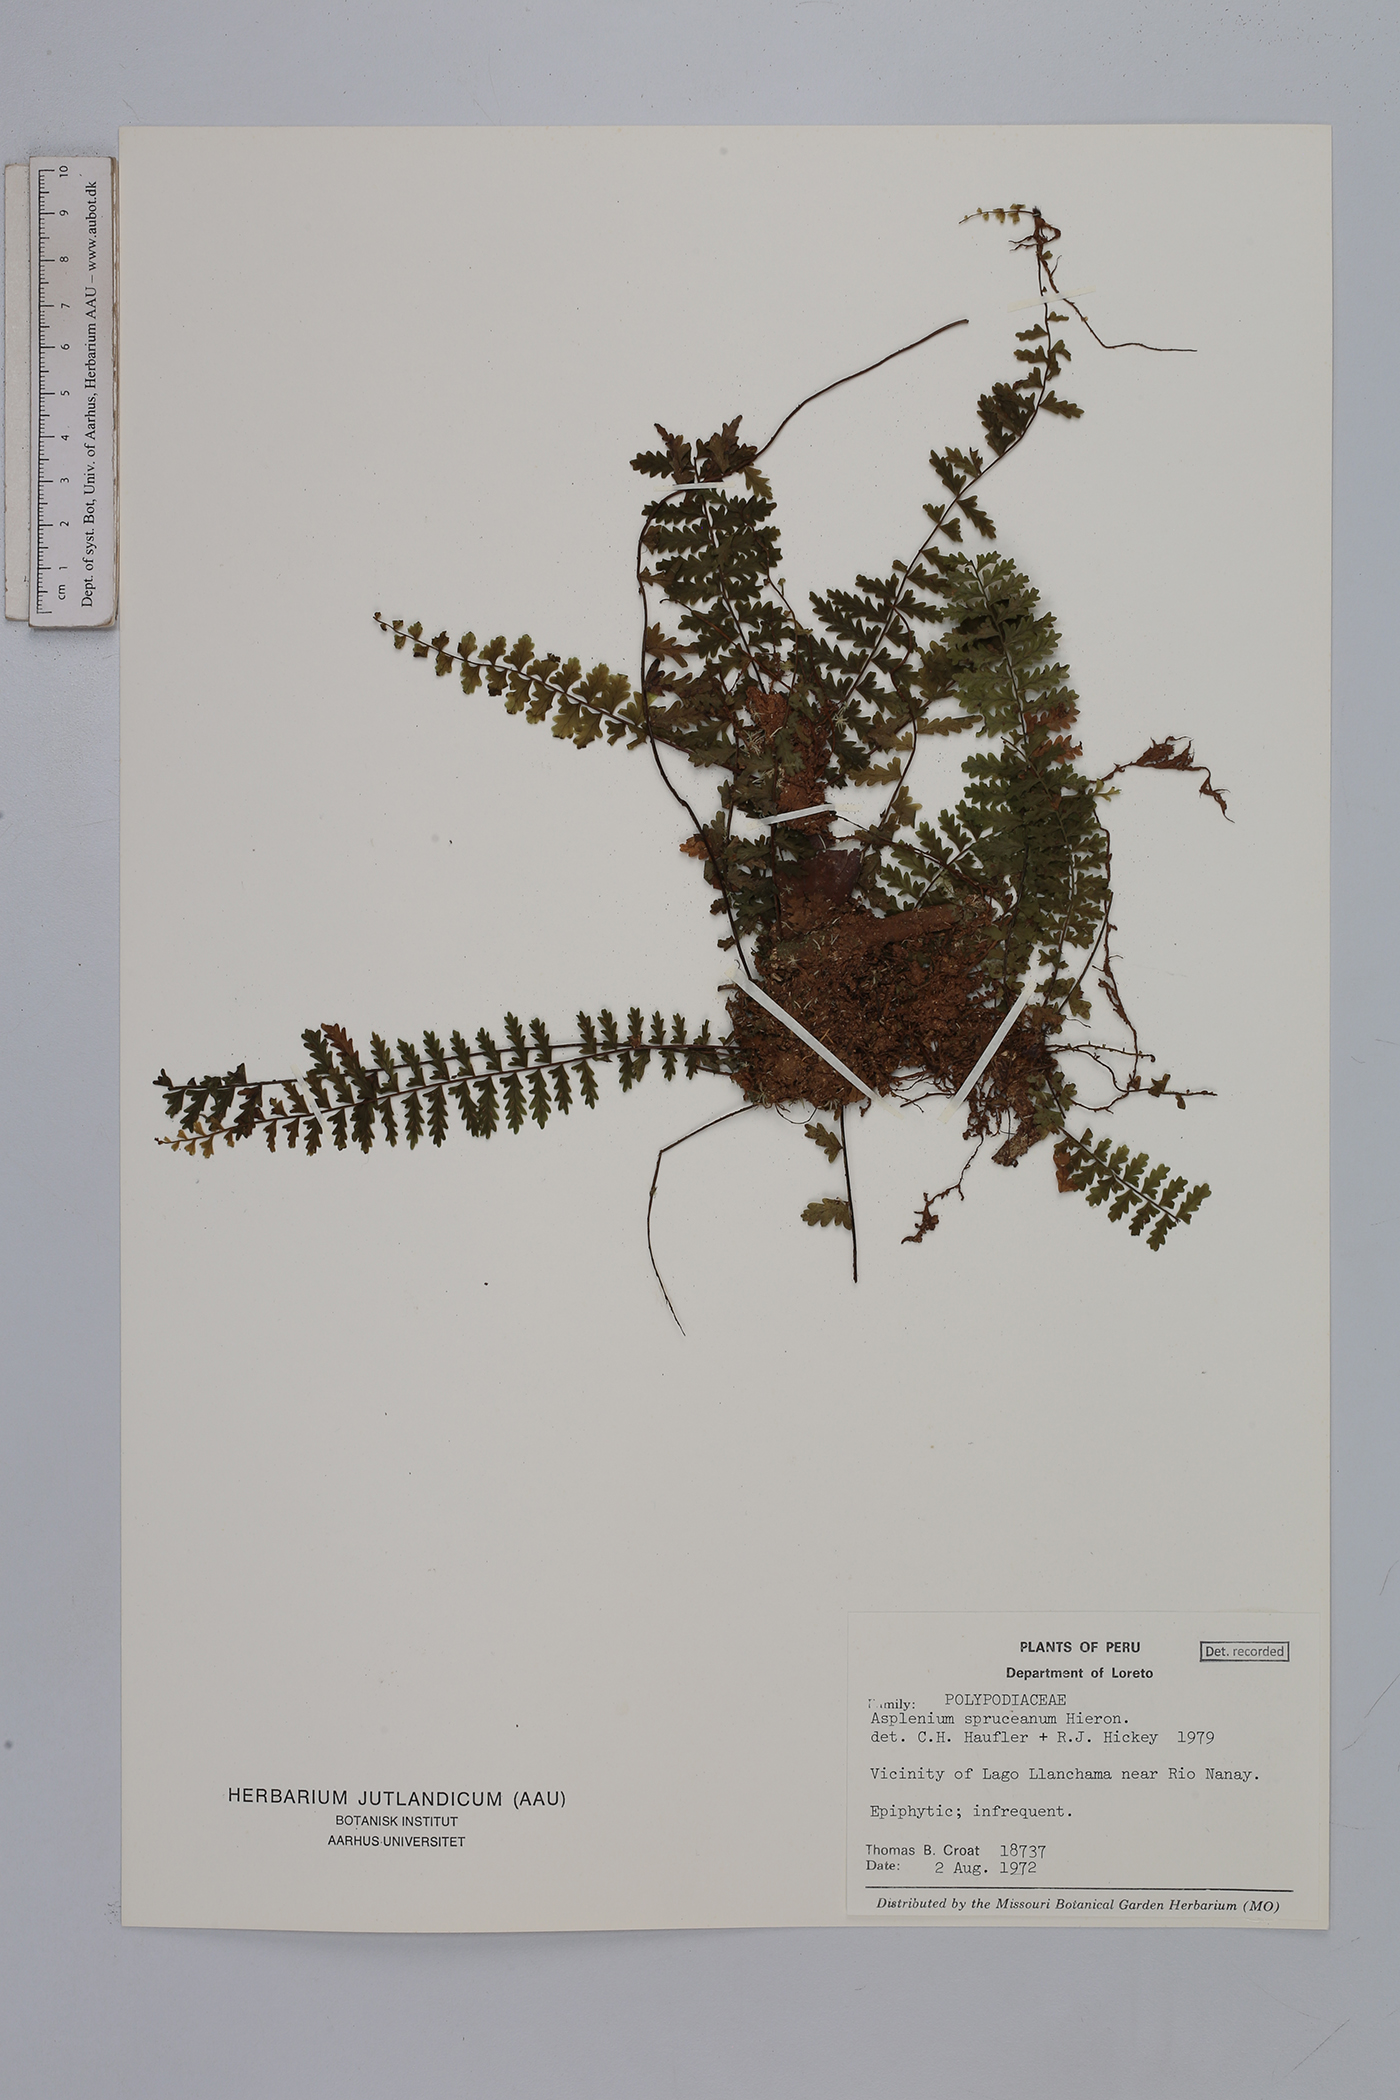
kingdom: Plantae
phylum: Tracheophyta
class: Polypodiopsida
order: Polypodiales
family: Aspleniaceae
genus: Asplenium
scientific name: Asplenium hallii
